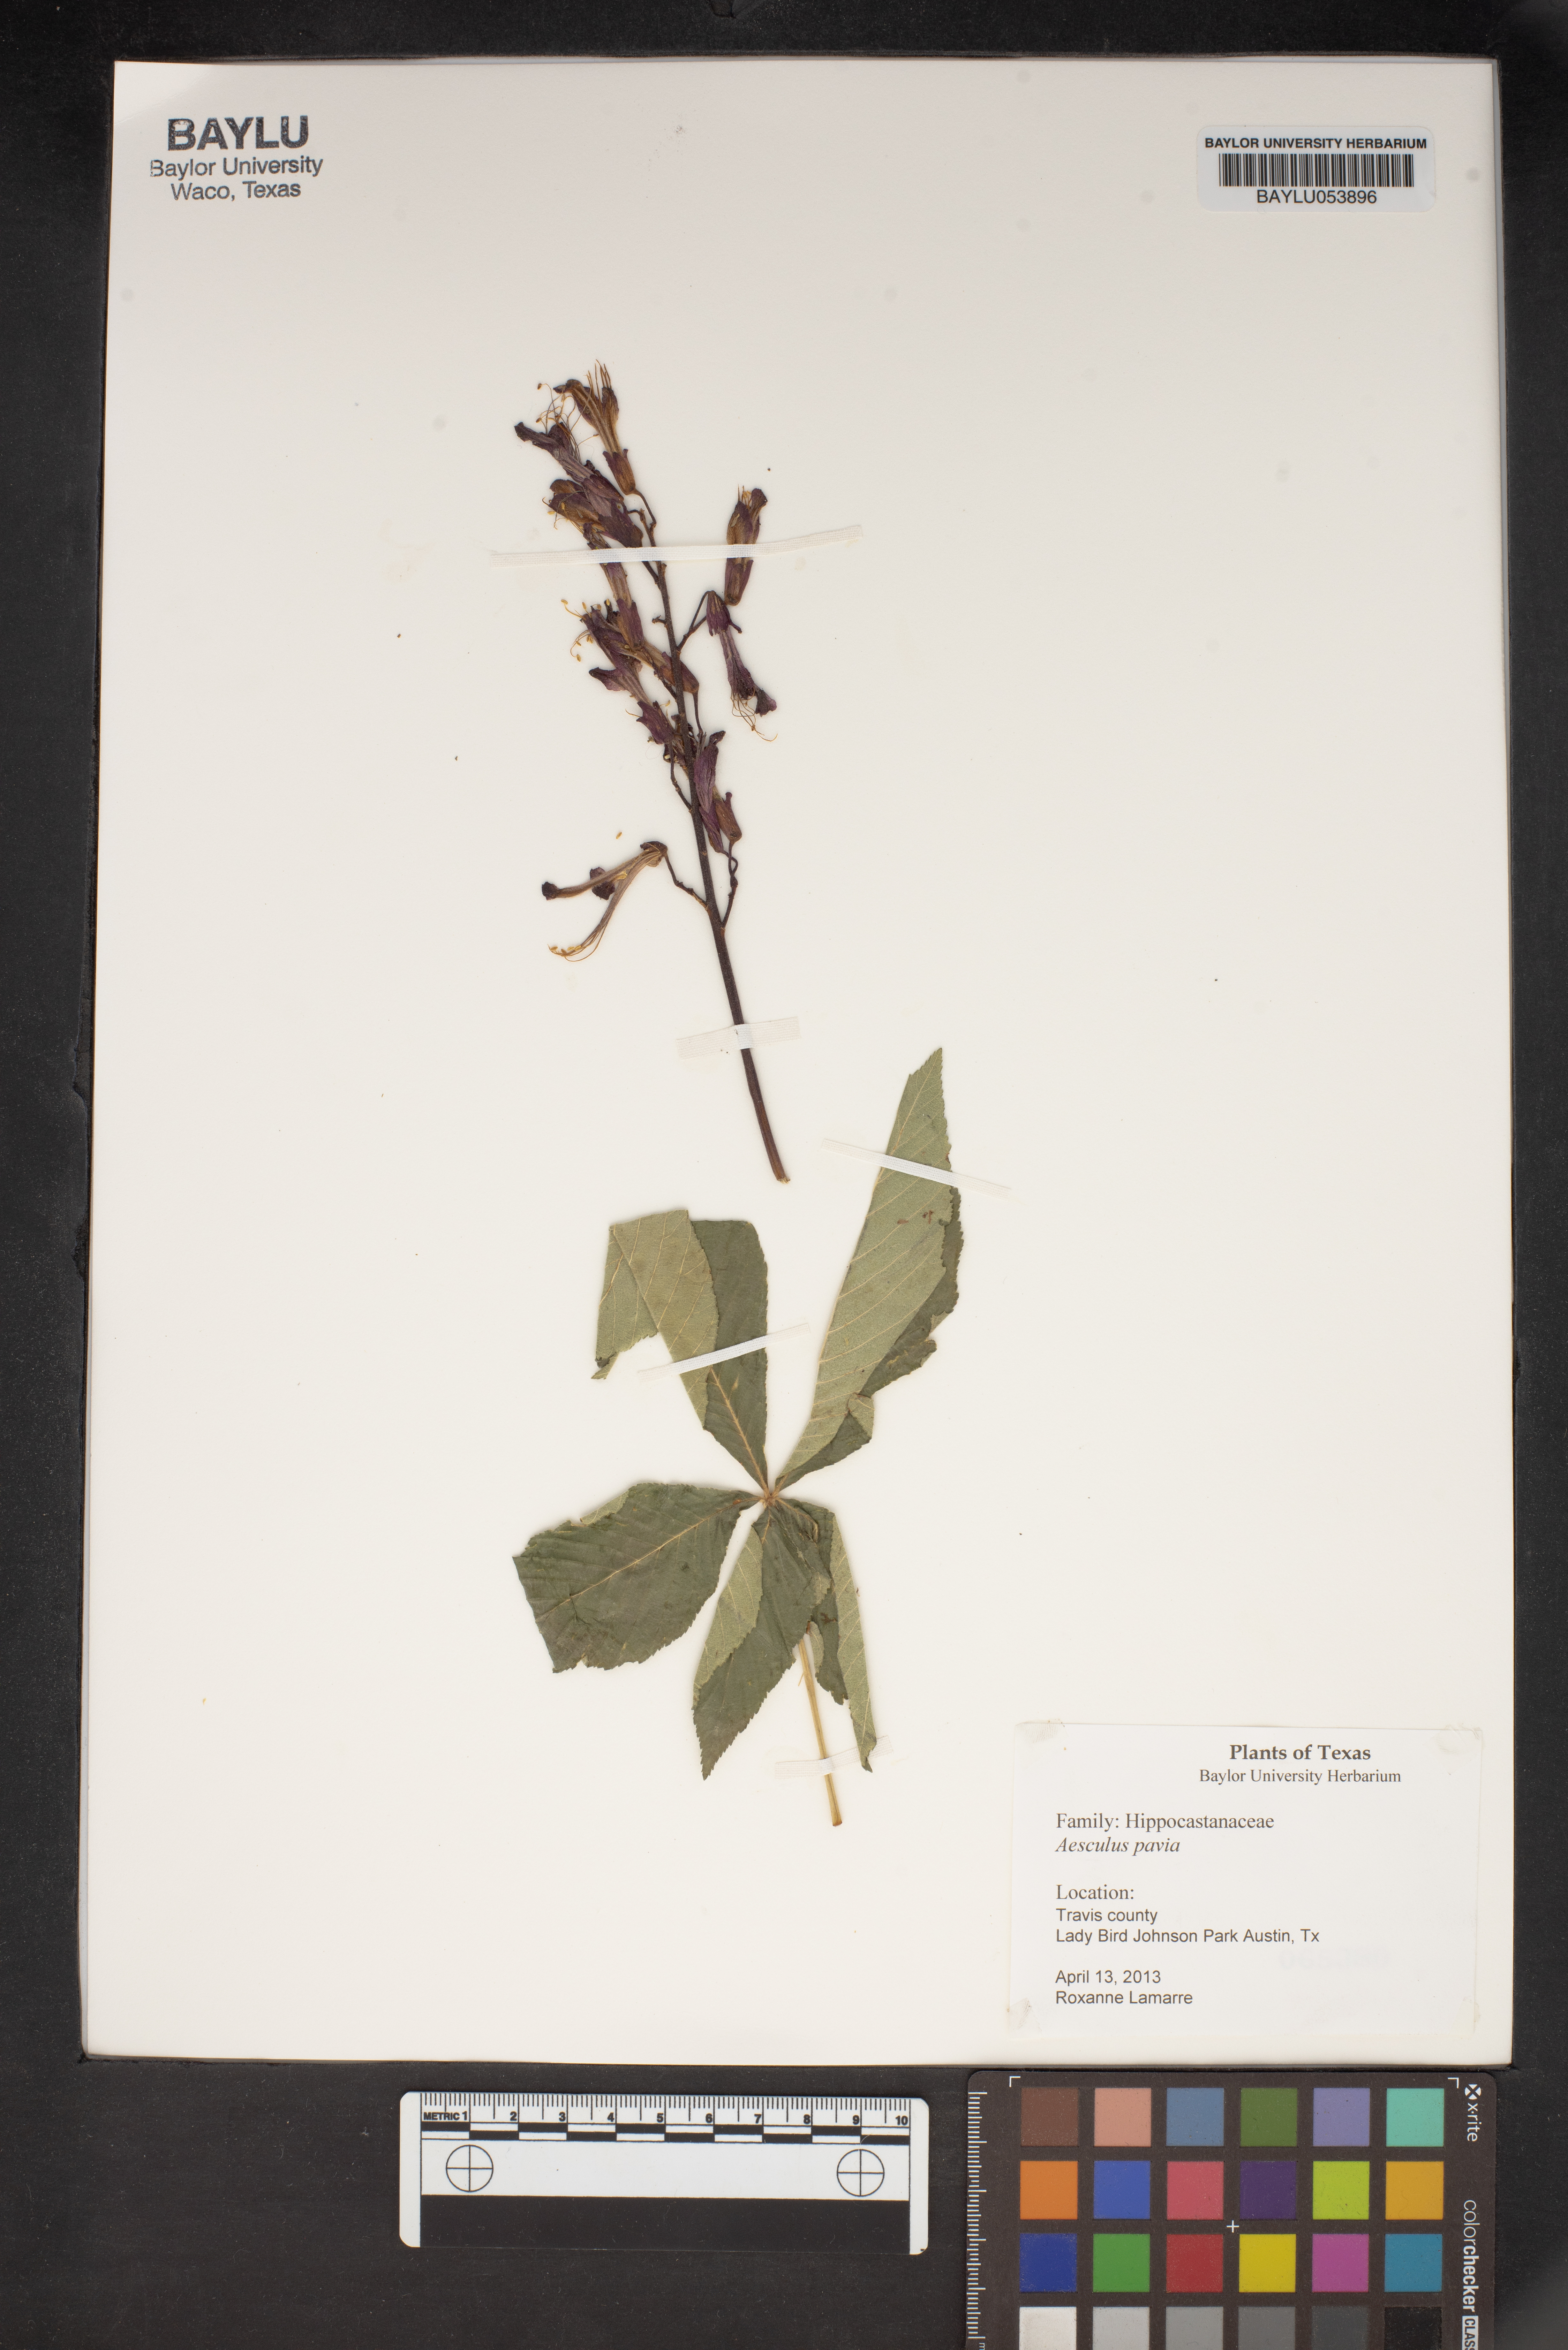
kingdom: Plantae
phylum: Tracheophyta
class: Magnoliopsida
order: Sapindales
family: Sapindaceae
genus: Aesculus
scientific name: Aesculus pavia
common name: Red buckeye
